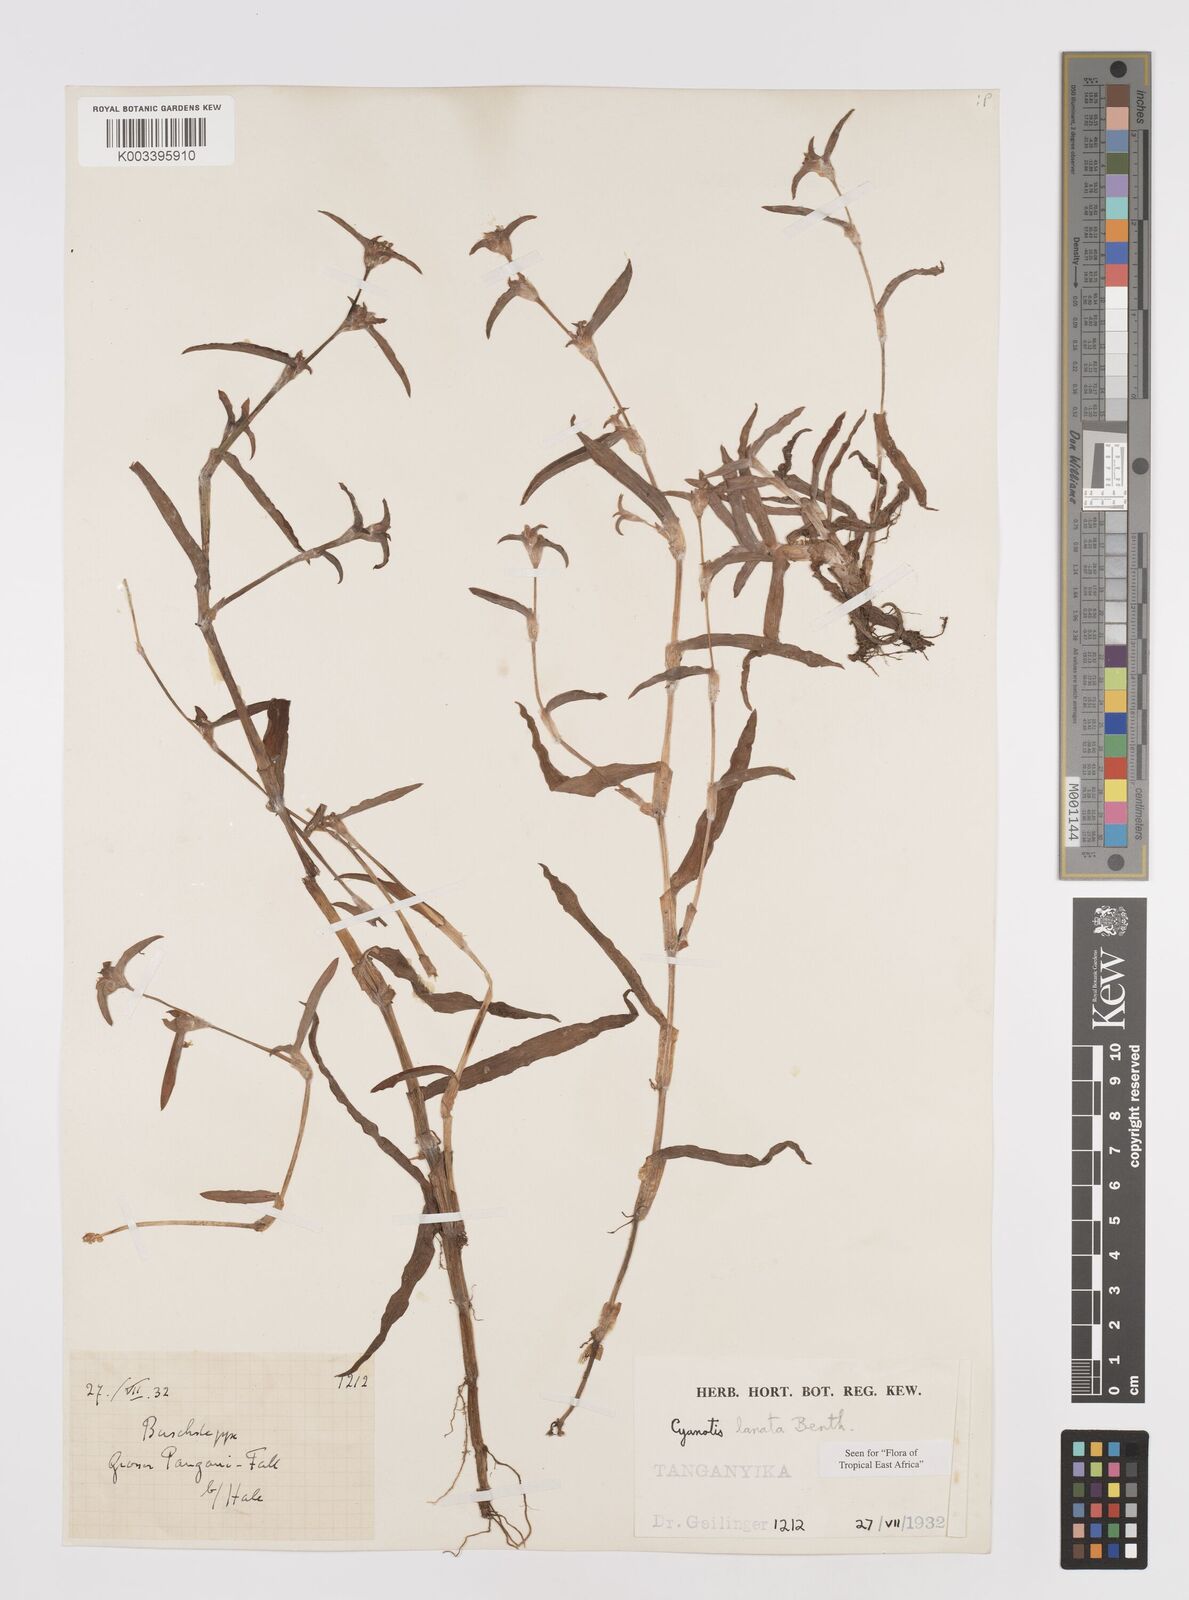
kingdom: Plantae
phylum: Tracheophyta
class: Liliopsida
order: Commelinales
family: Commelinaceae
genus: Cyanotis
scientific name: Cyanotis lanata
